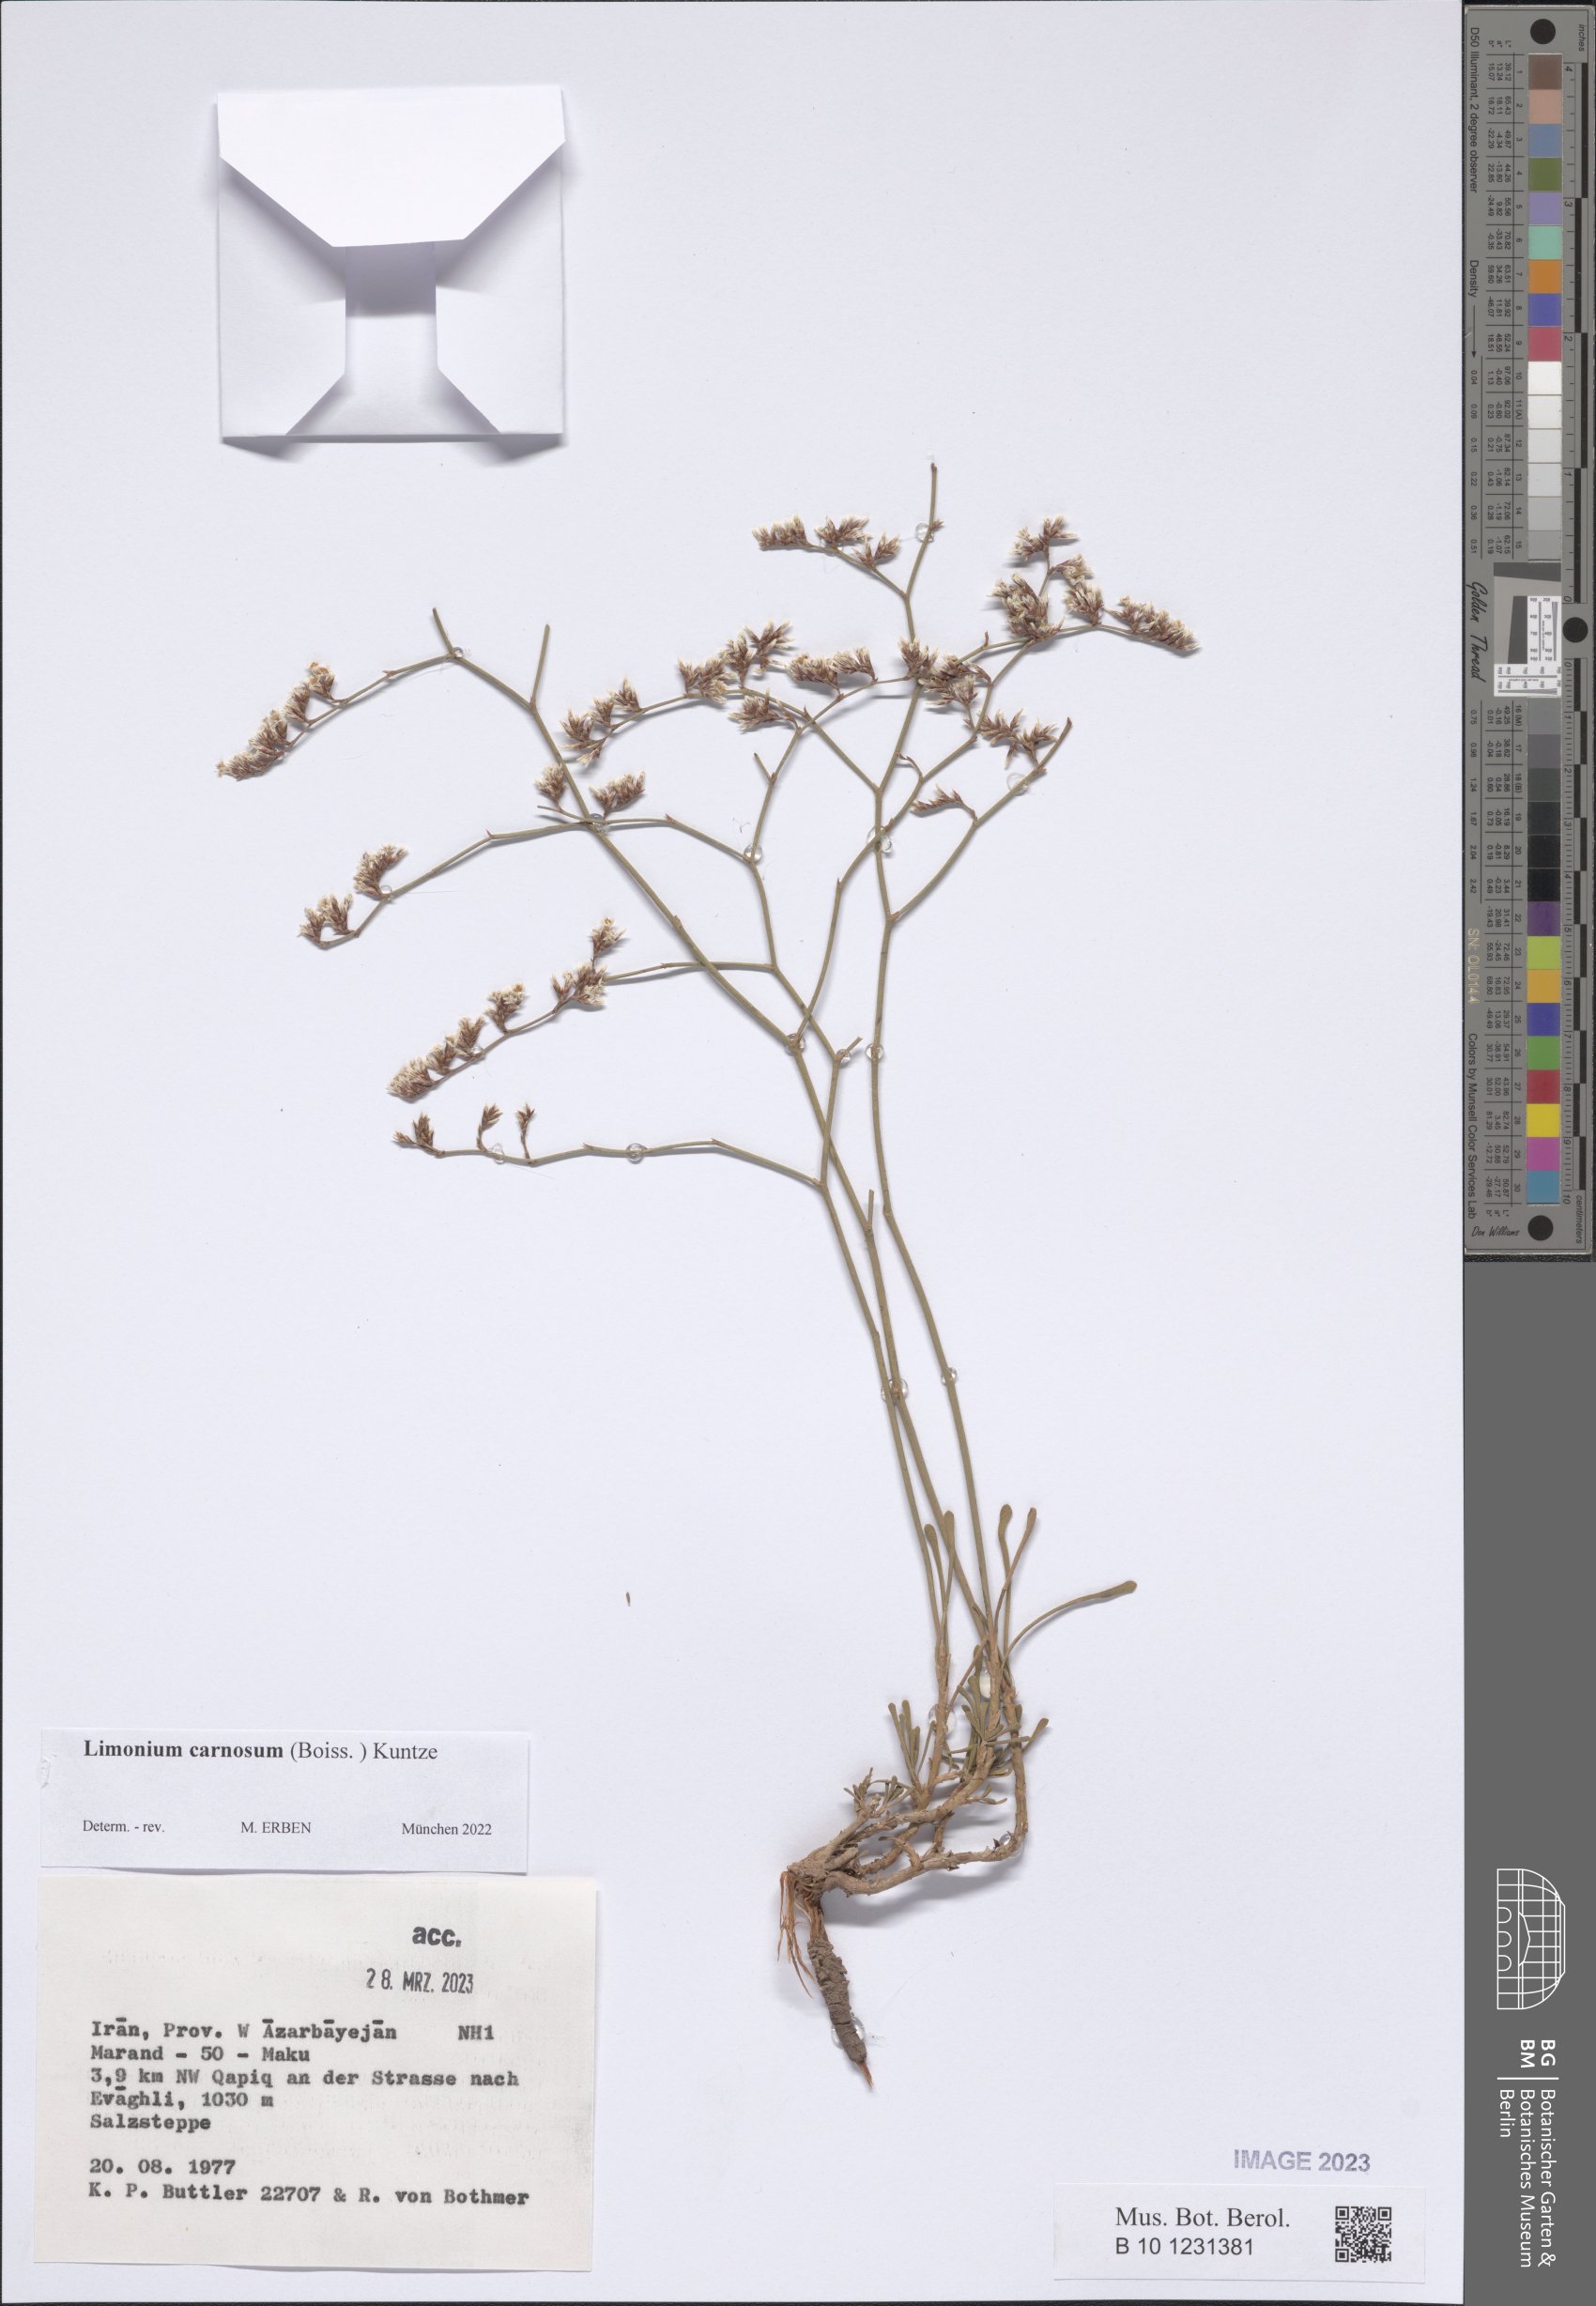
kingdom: Plantae
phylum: Tracheophyta
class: Magnoliopsida
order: Caryophyllales
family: Plumbaginaceae
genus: Limonium
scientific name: Limonium carnosum
